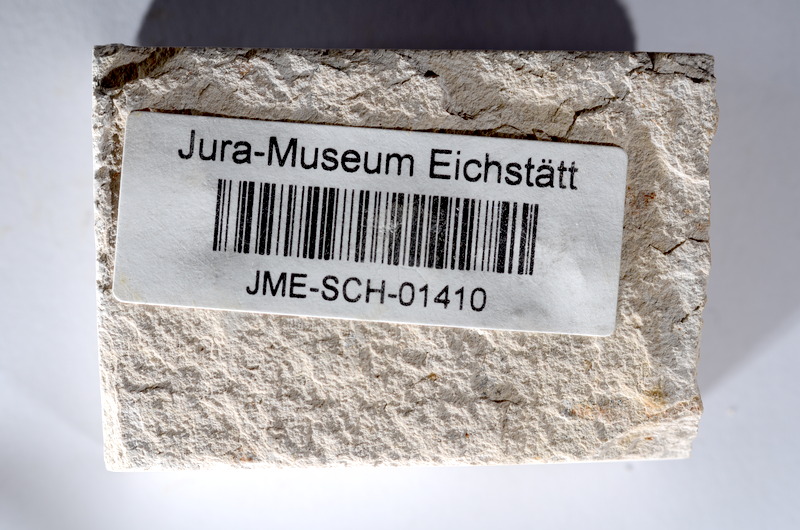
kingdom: Animalia
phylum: Chordata
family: Ascalaboidae
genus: Tharsis
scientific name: Tharsis dubius
